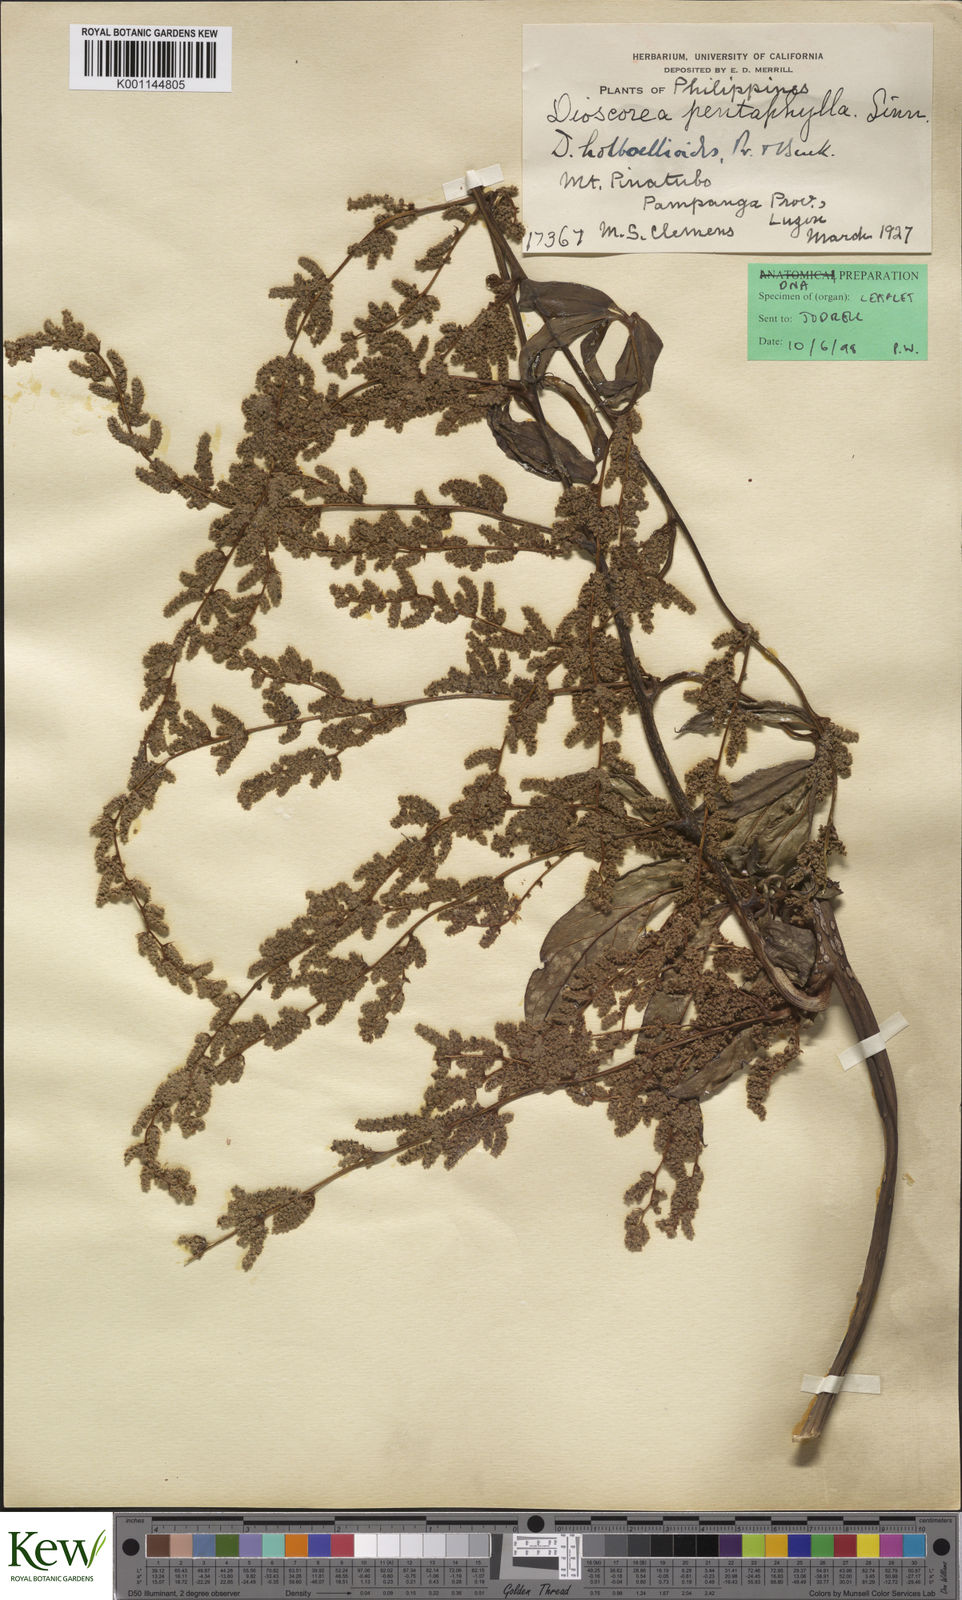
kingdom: Plantae
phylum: Tracheophyta
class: Liliopsida
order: Dioscoreales
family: Dioscoreaceae
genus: Dioscorea
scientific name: Dioscorea cumingii
